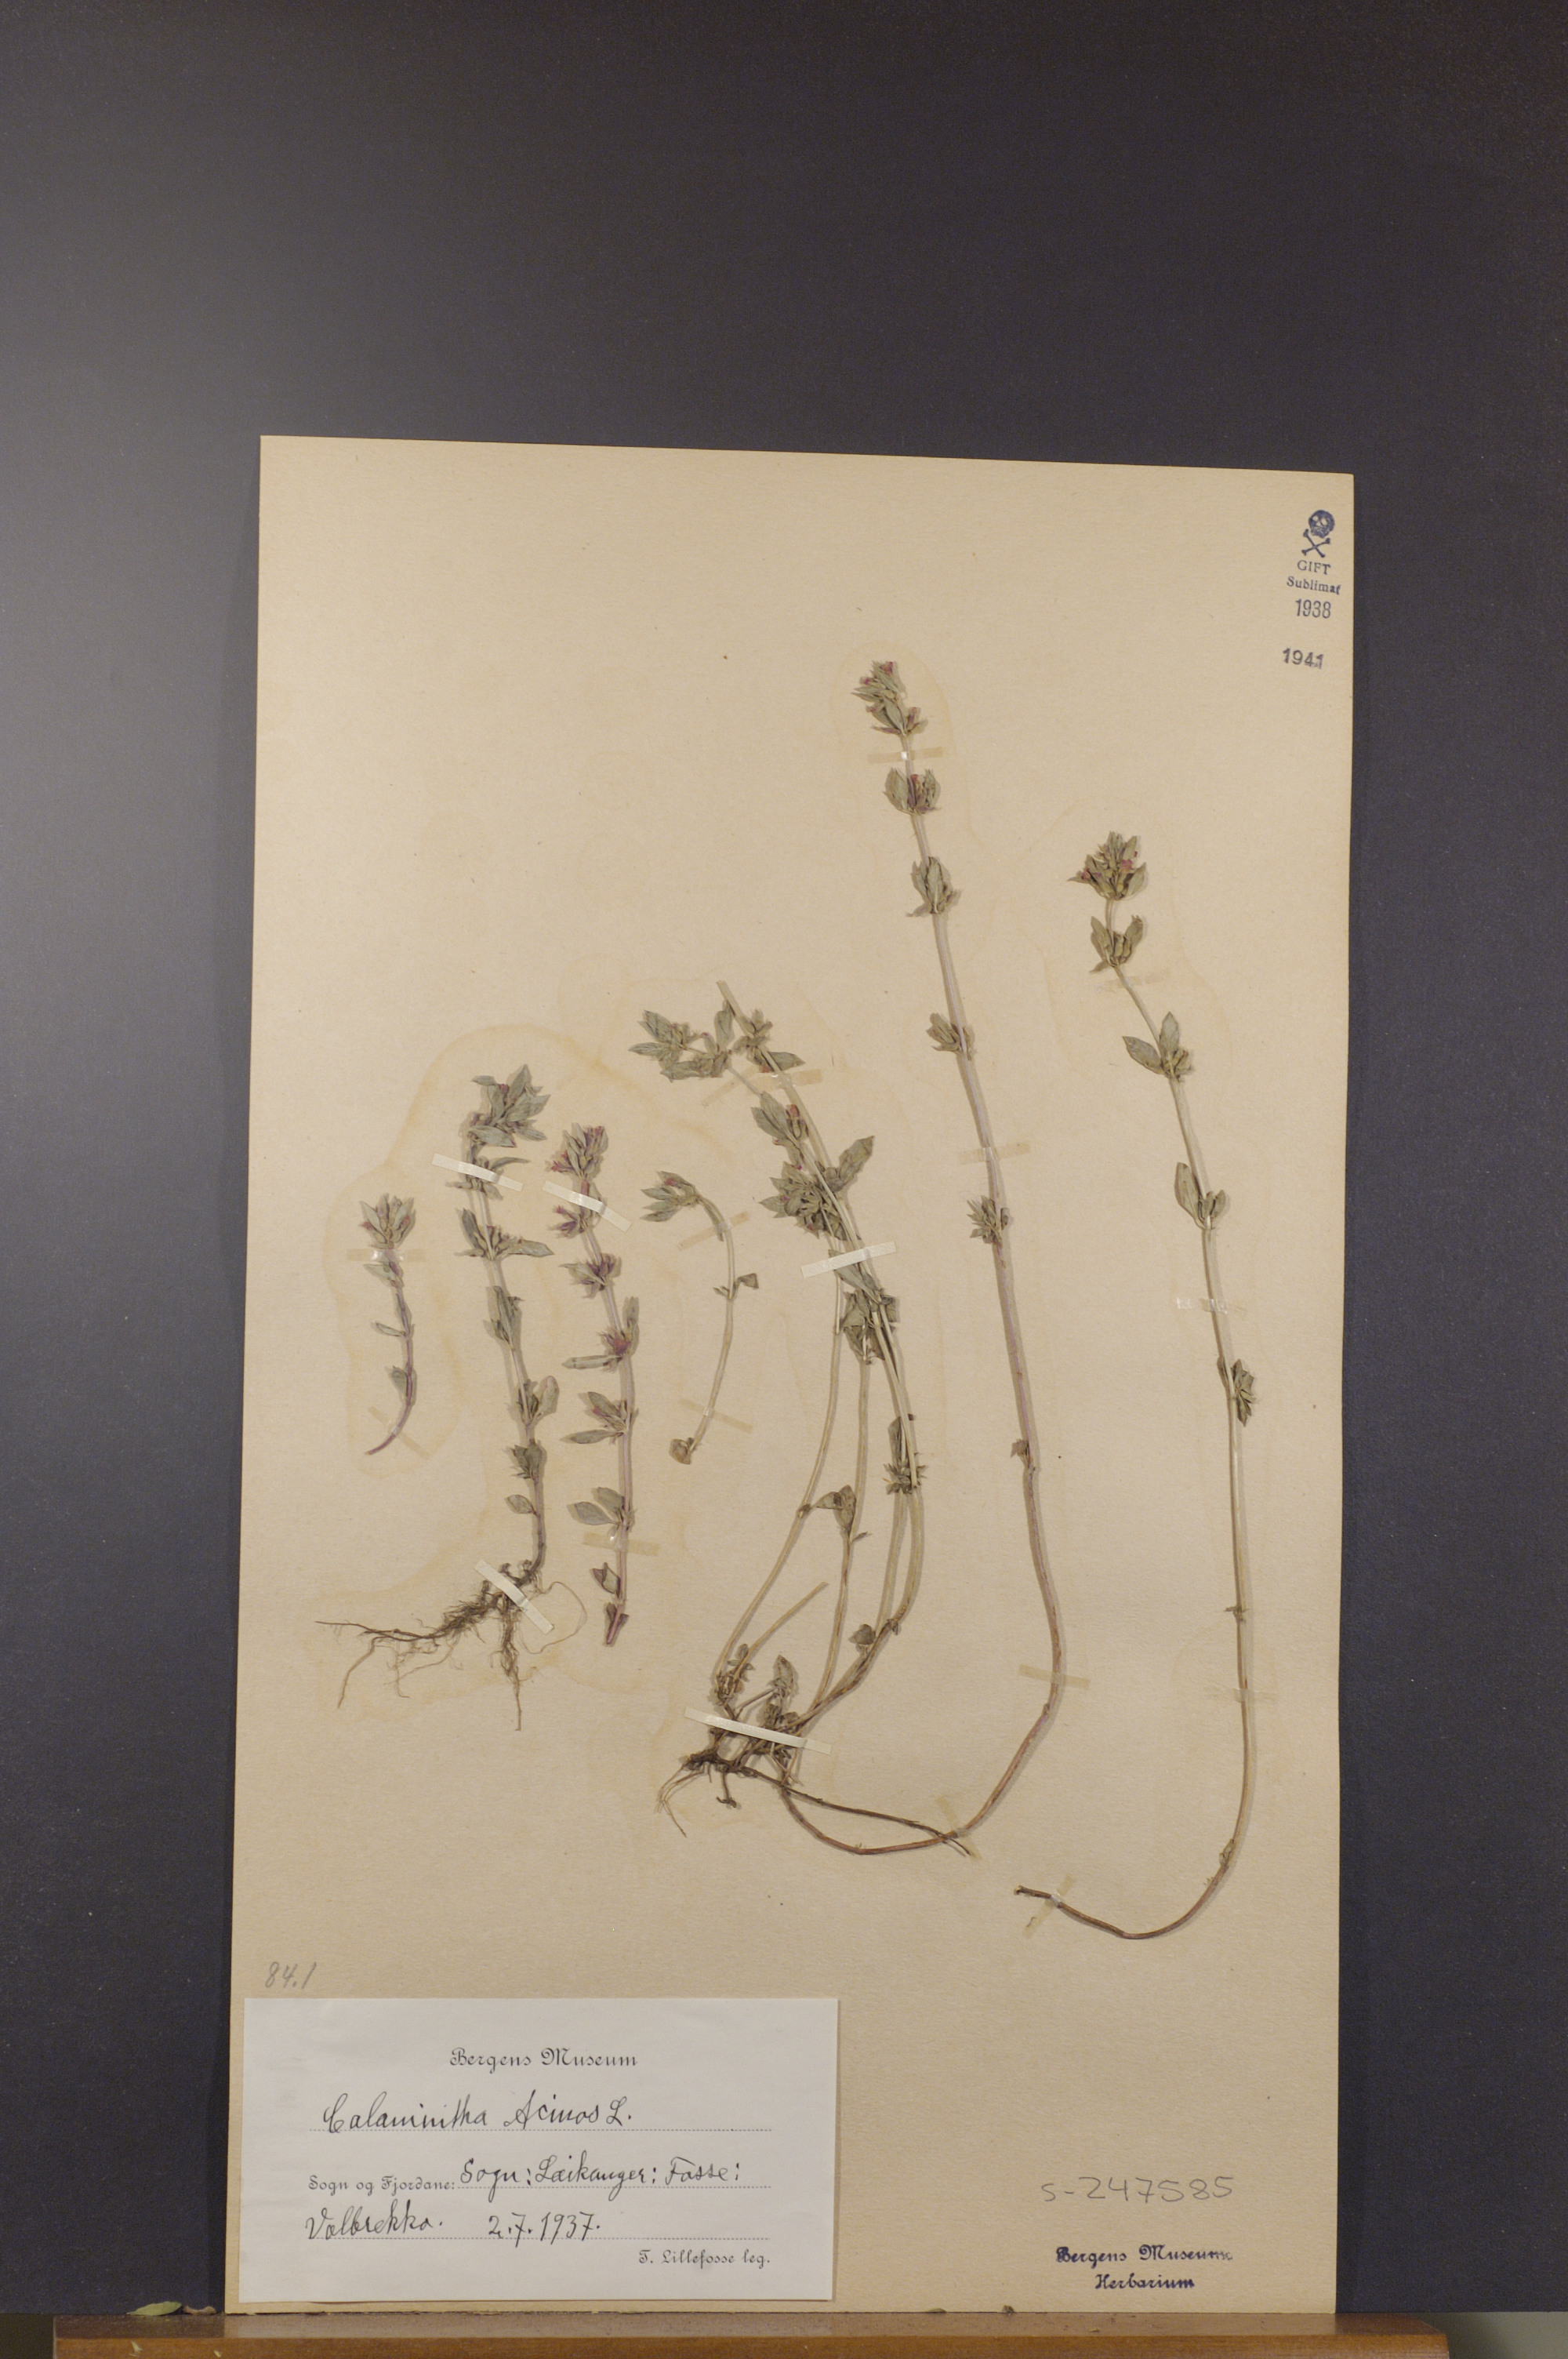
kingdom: Plantae
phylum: Tracheophyta
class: Magnoliopsida
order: Lamiales
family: Lamiaceae
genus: Clinopodium
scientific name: Clinopodium acinos
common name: Basil thyme
